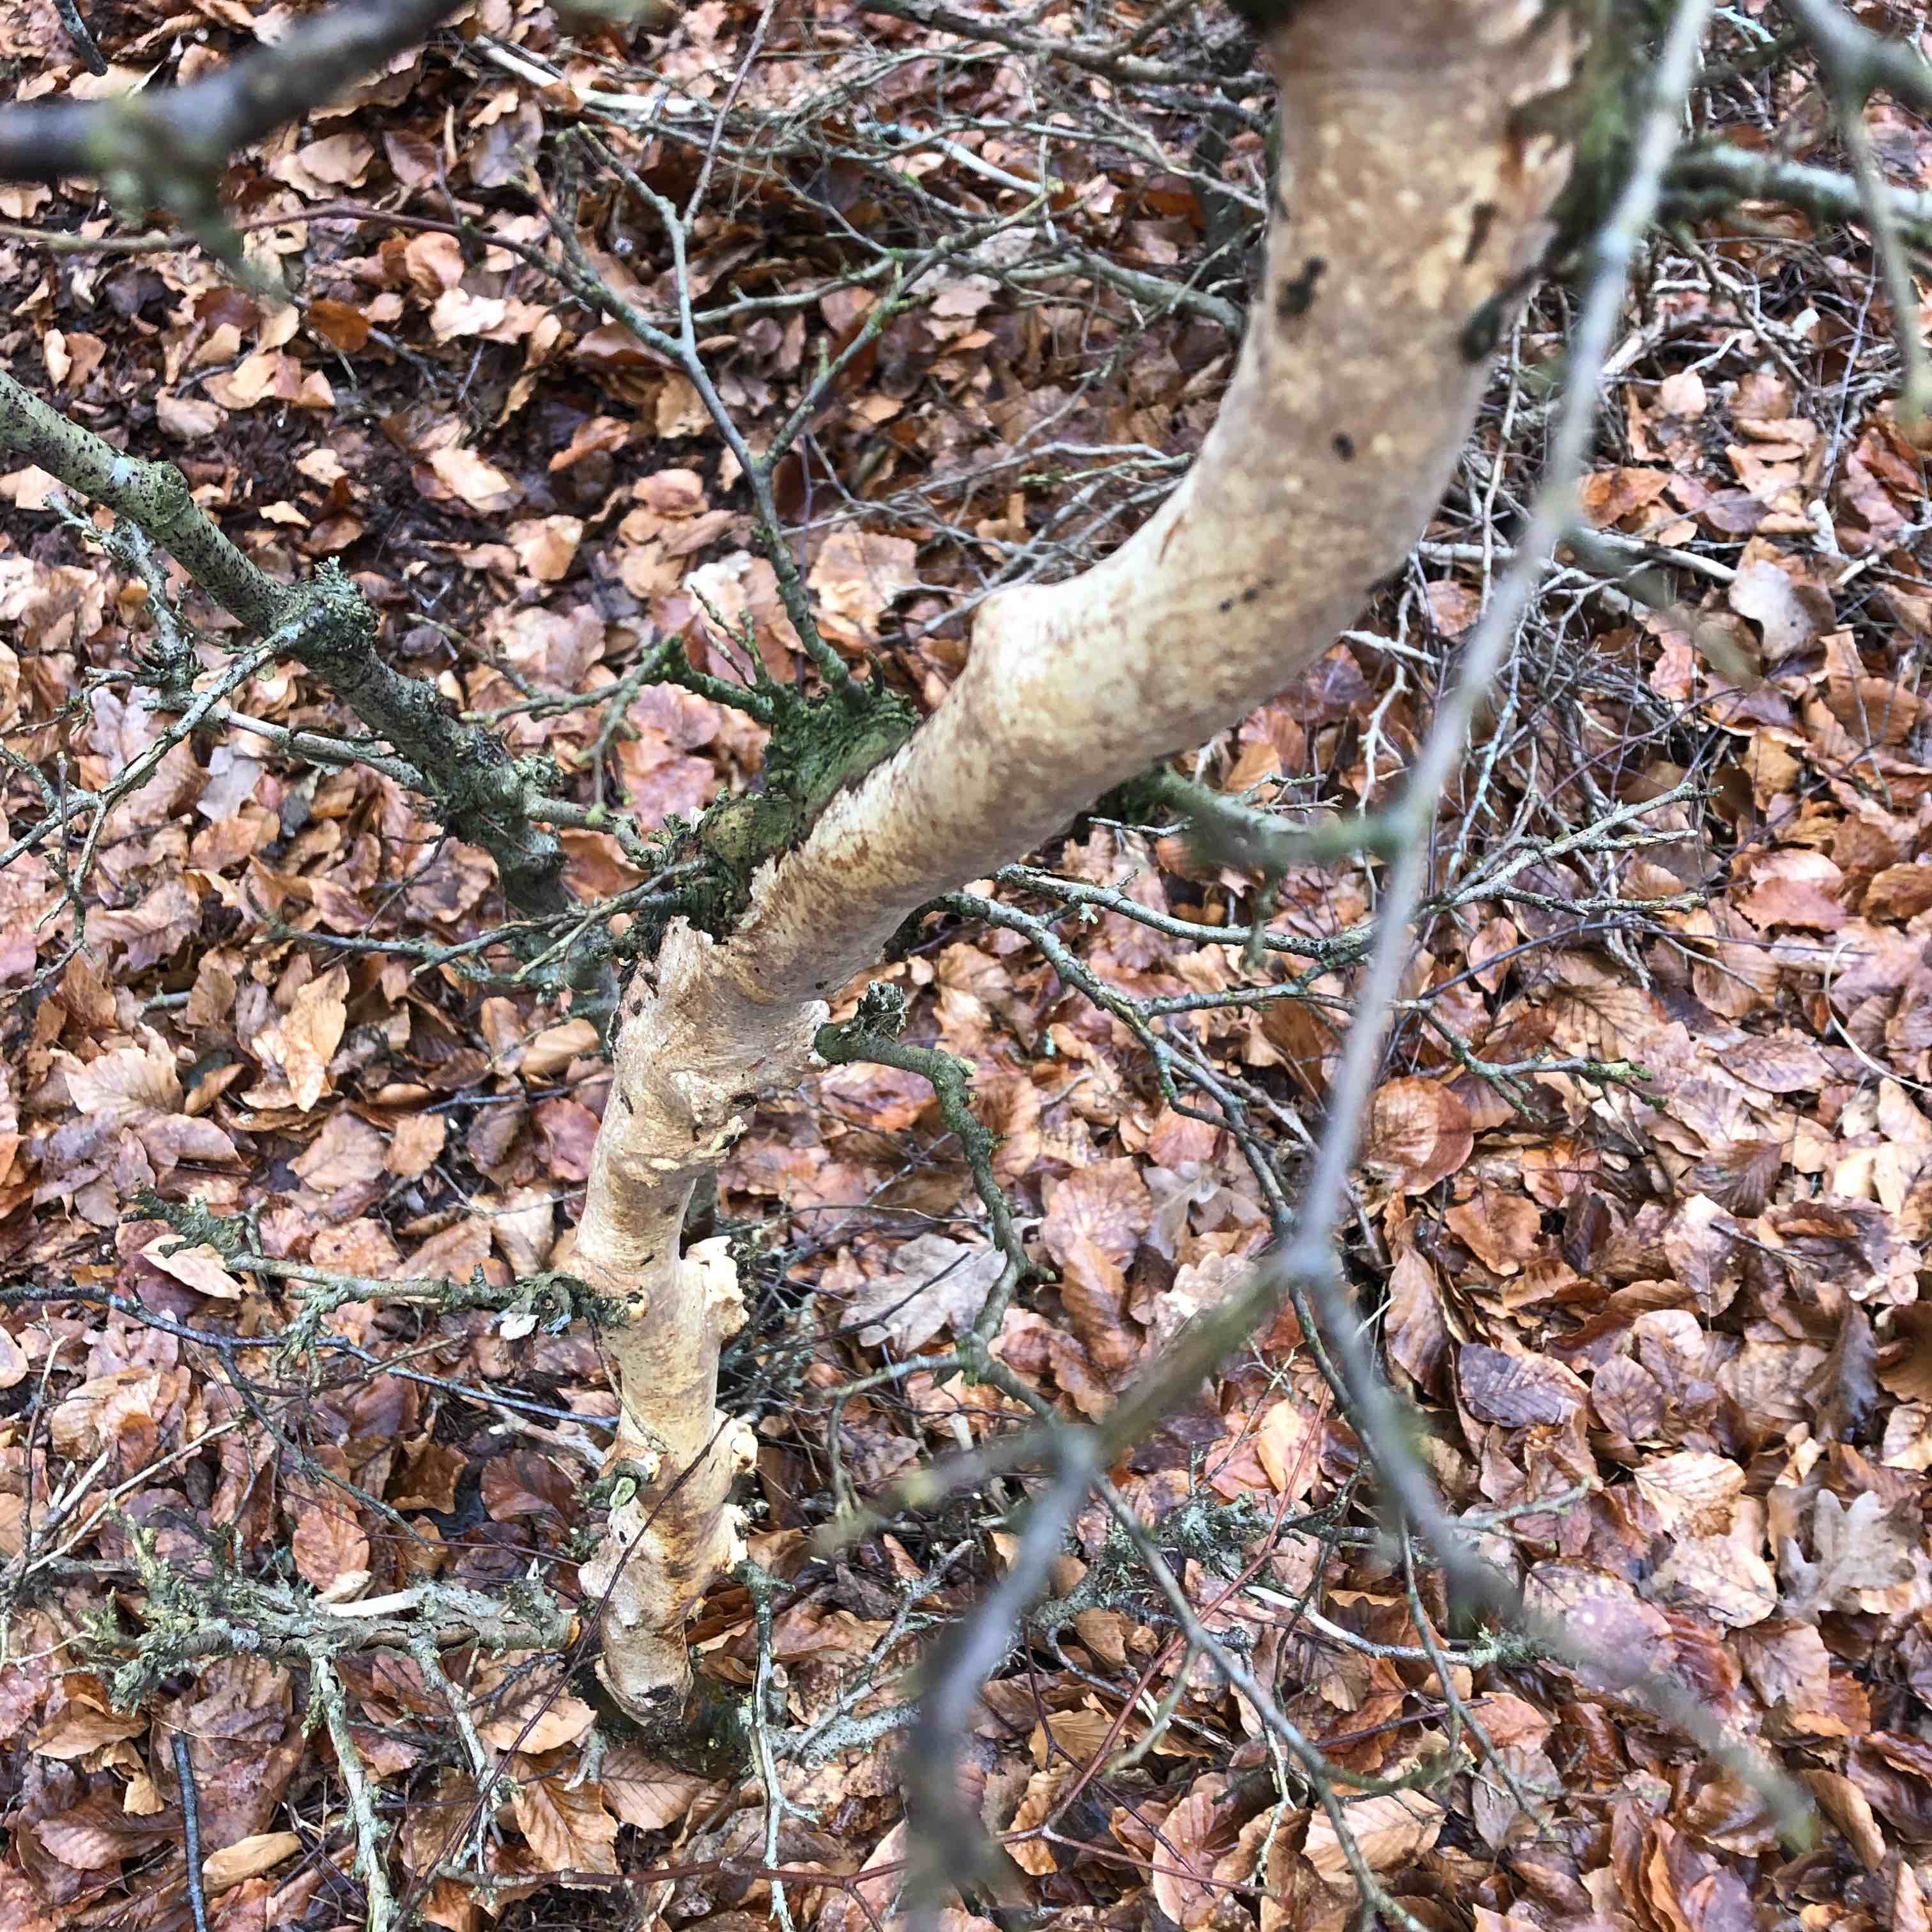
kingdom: Fungi
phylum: Basidiomycota
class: Agaricomycetes
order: Corticiales
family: Vuilleminiaceae
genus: Vuilleminia
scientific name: Vuilleminia comedens
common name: almindelig barksprænger
